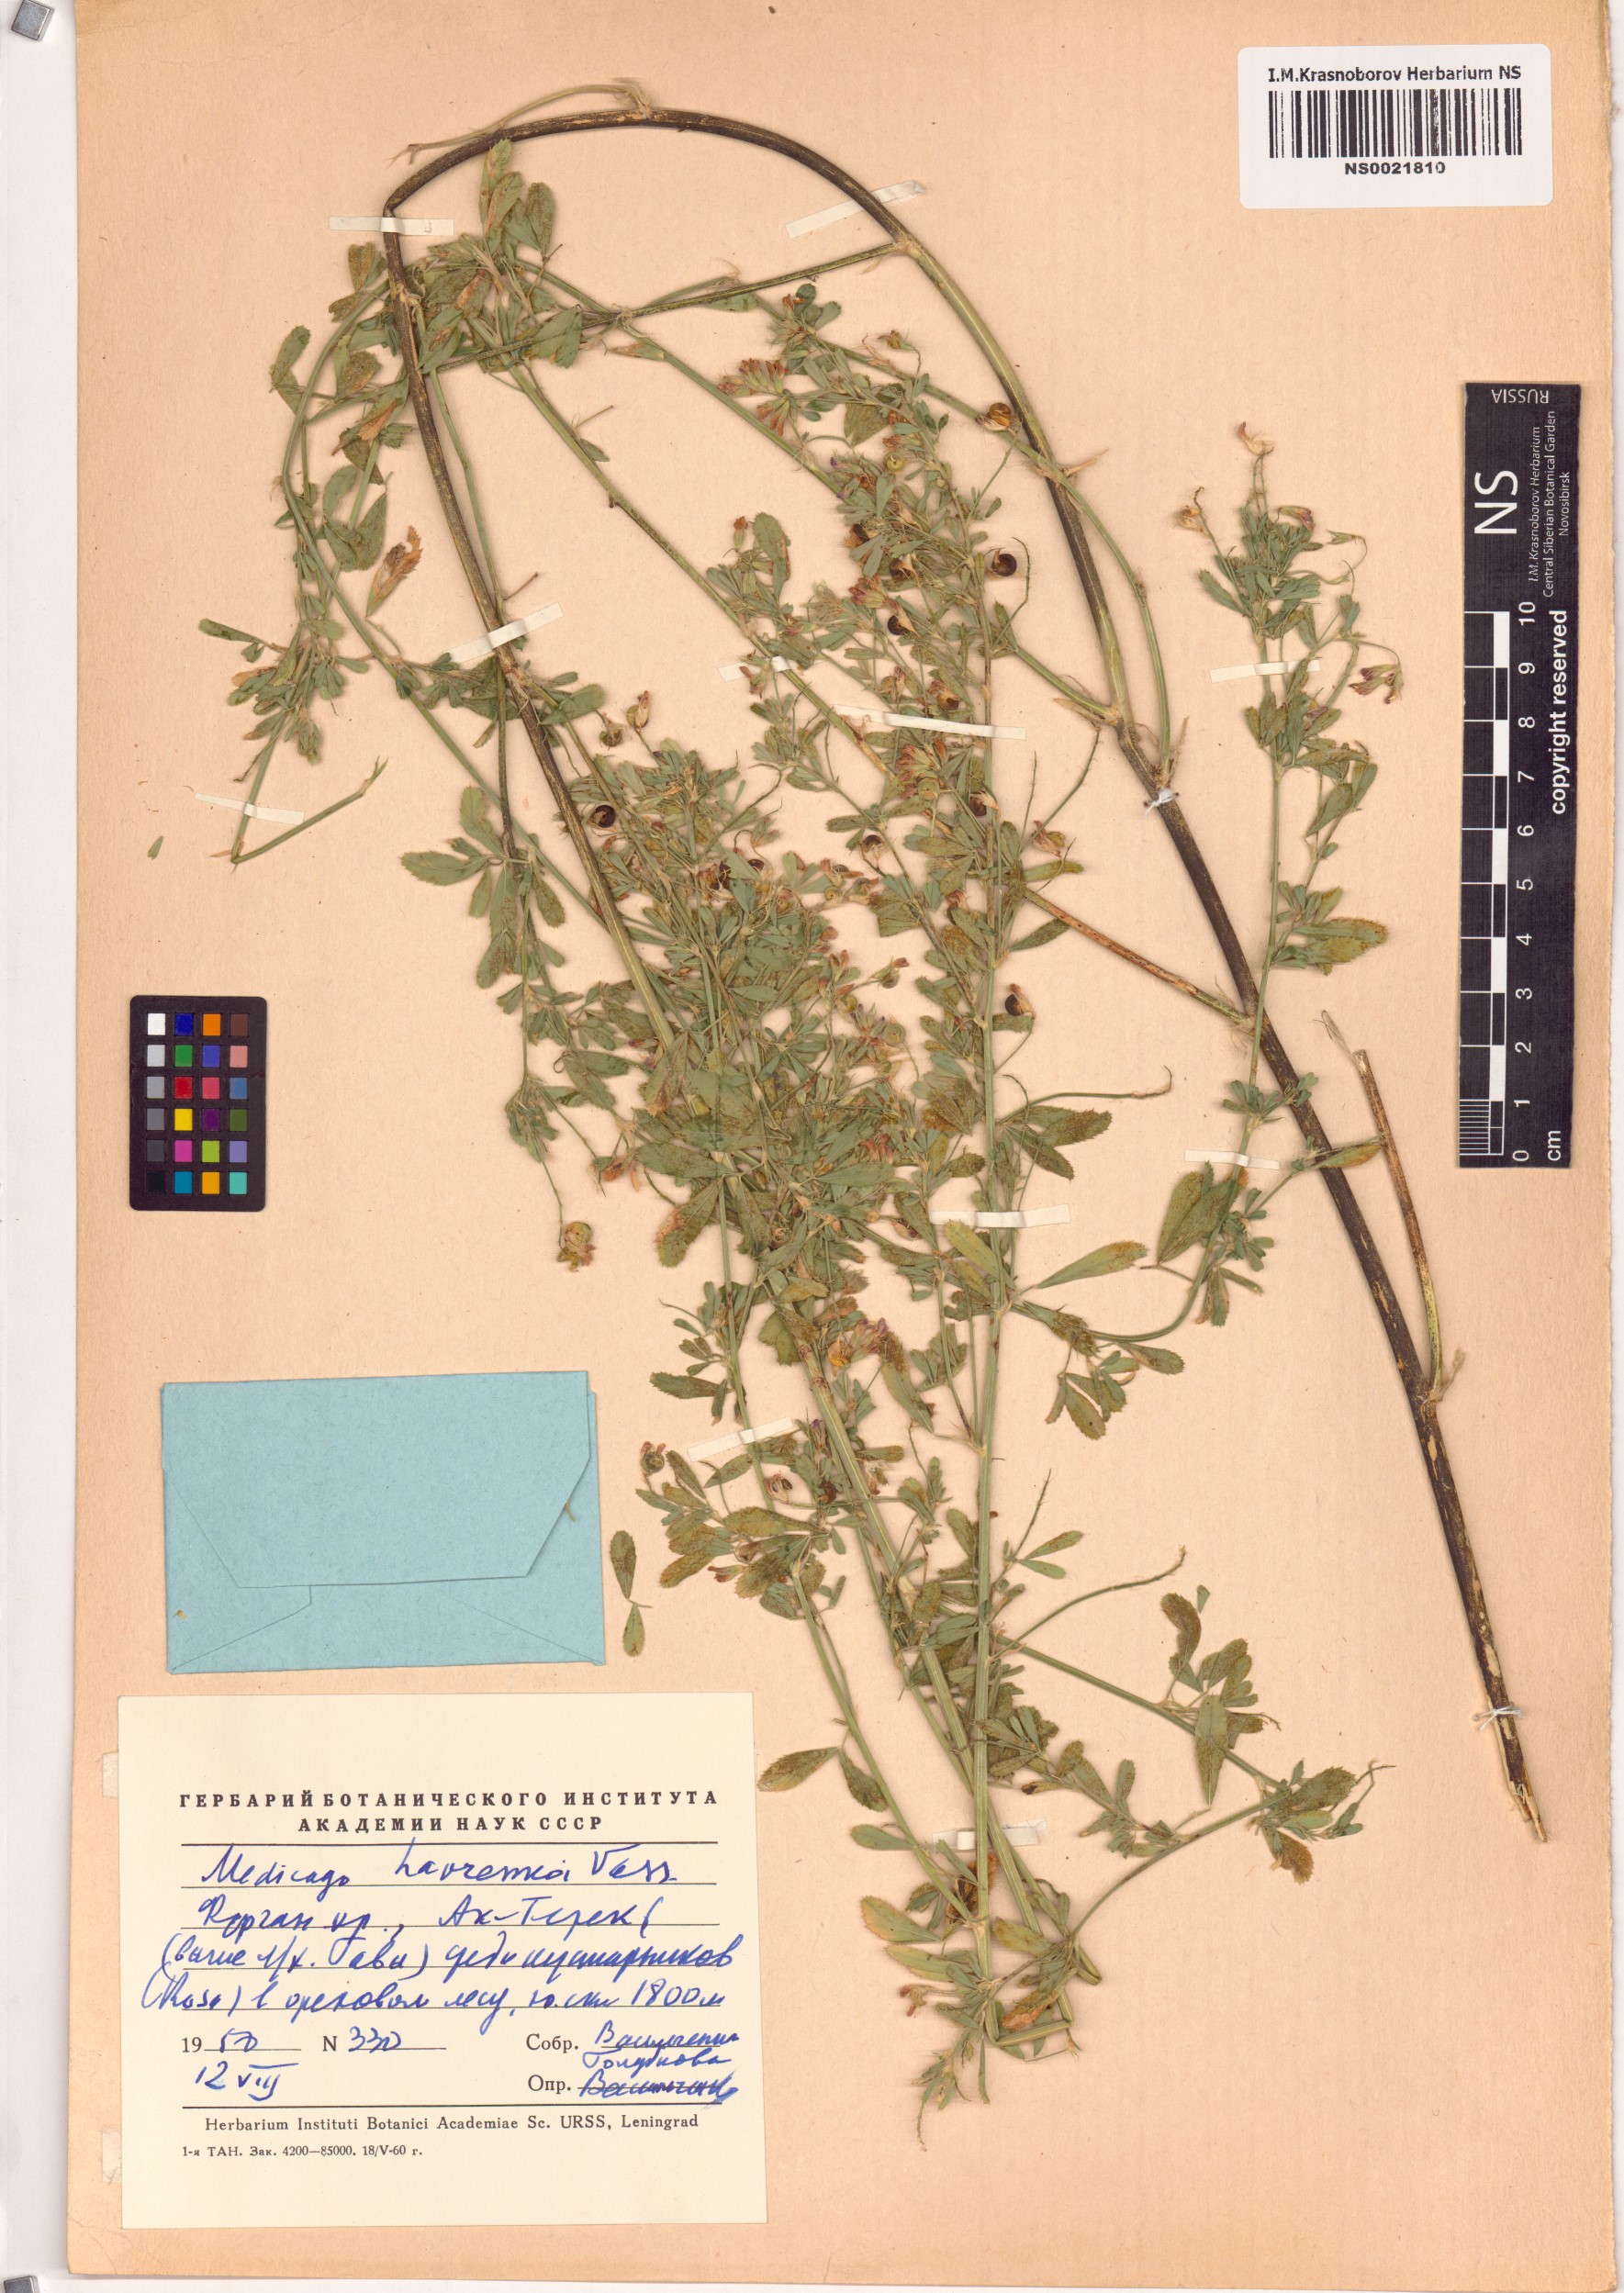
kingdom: Plantae
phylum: Tracheophyta
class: Magnoliopsida
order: Fabales
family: Fabaceae
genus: Medicago
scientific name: Medicago varia
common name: Sand lucerne
